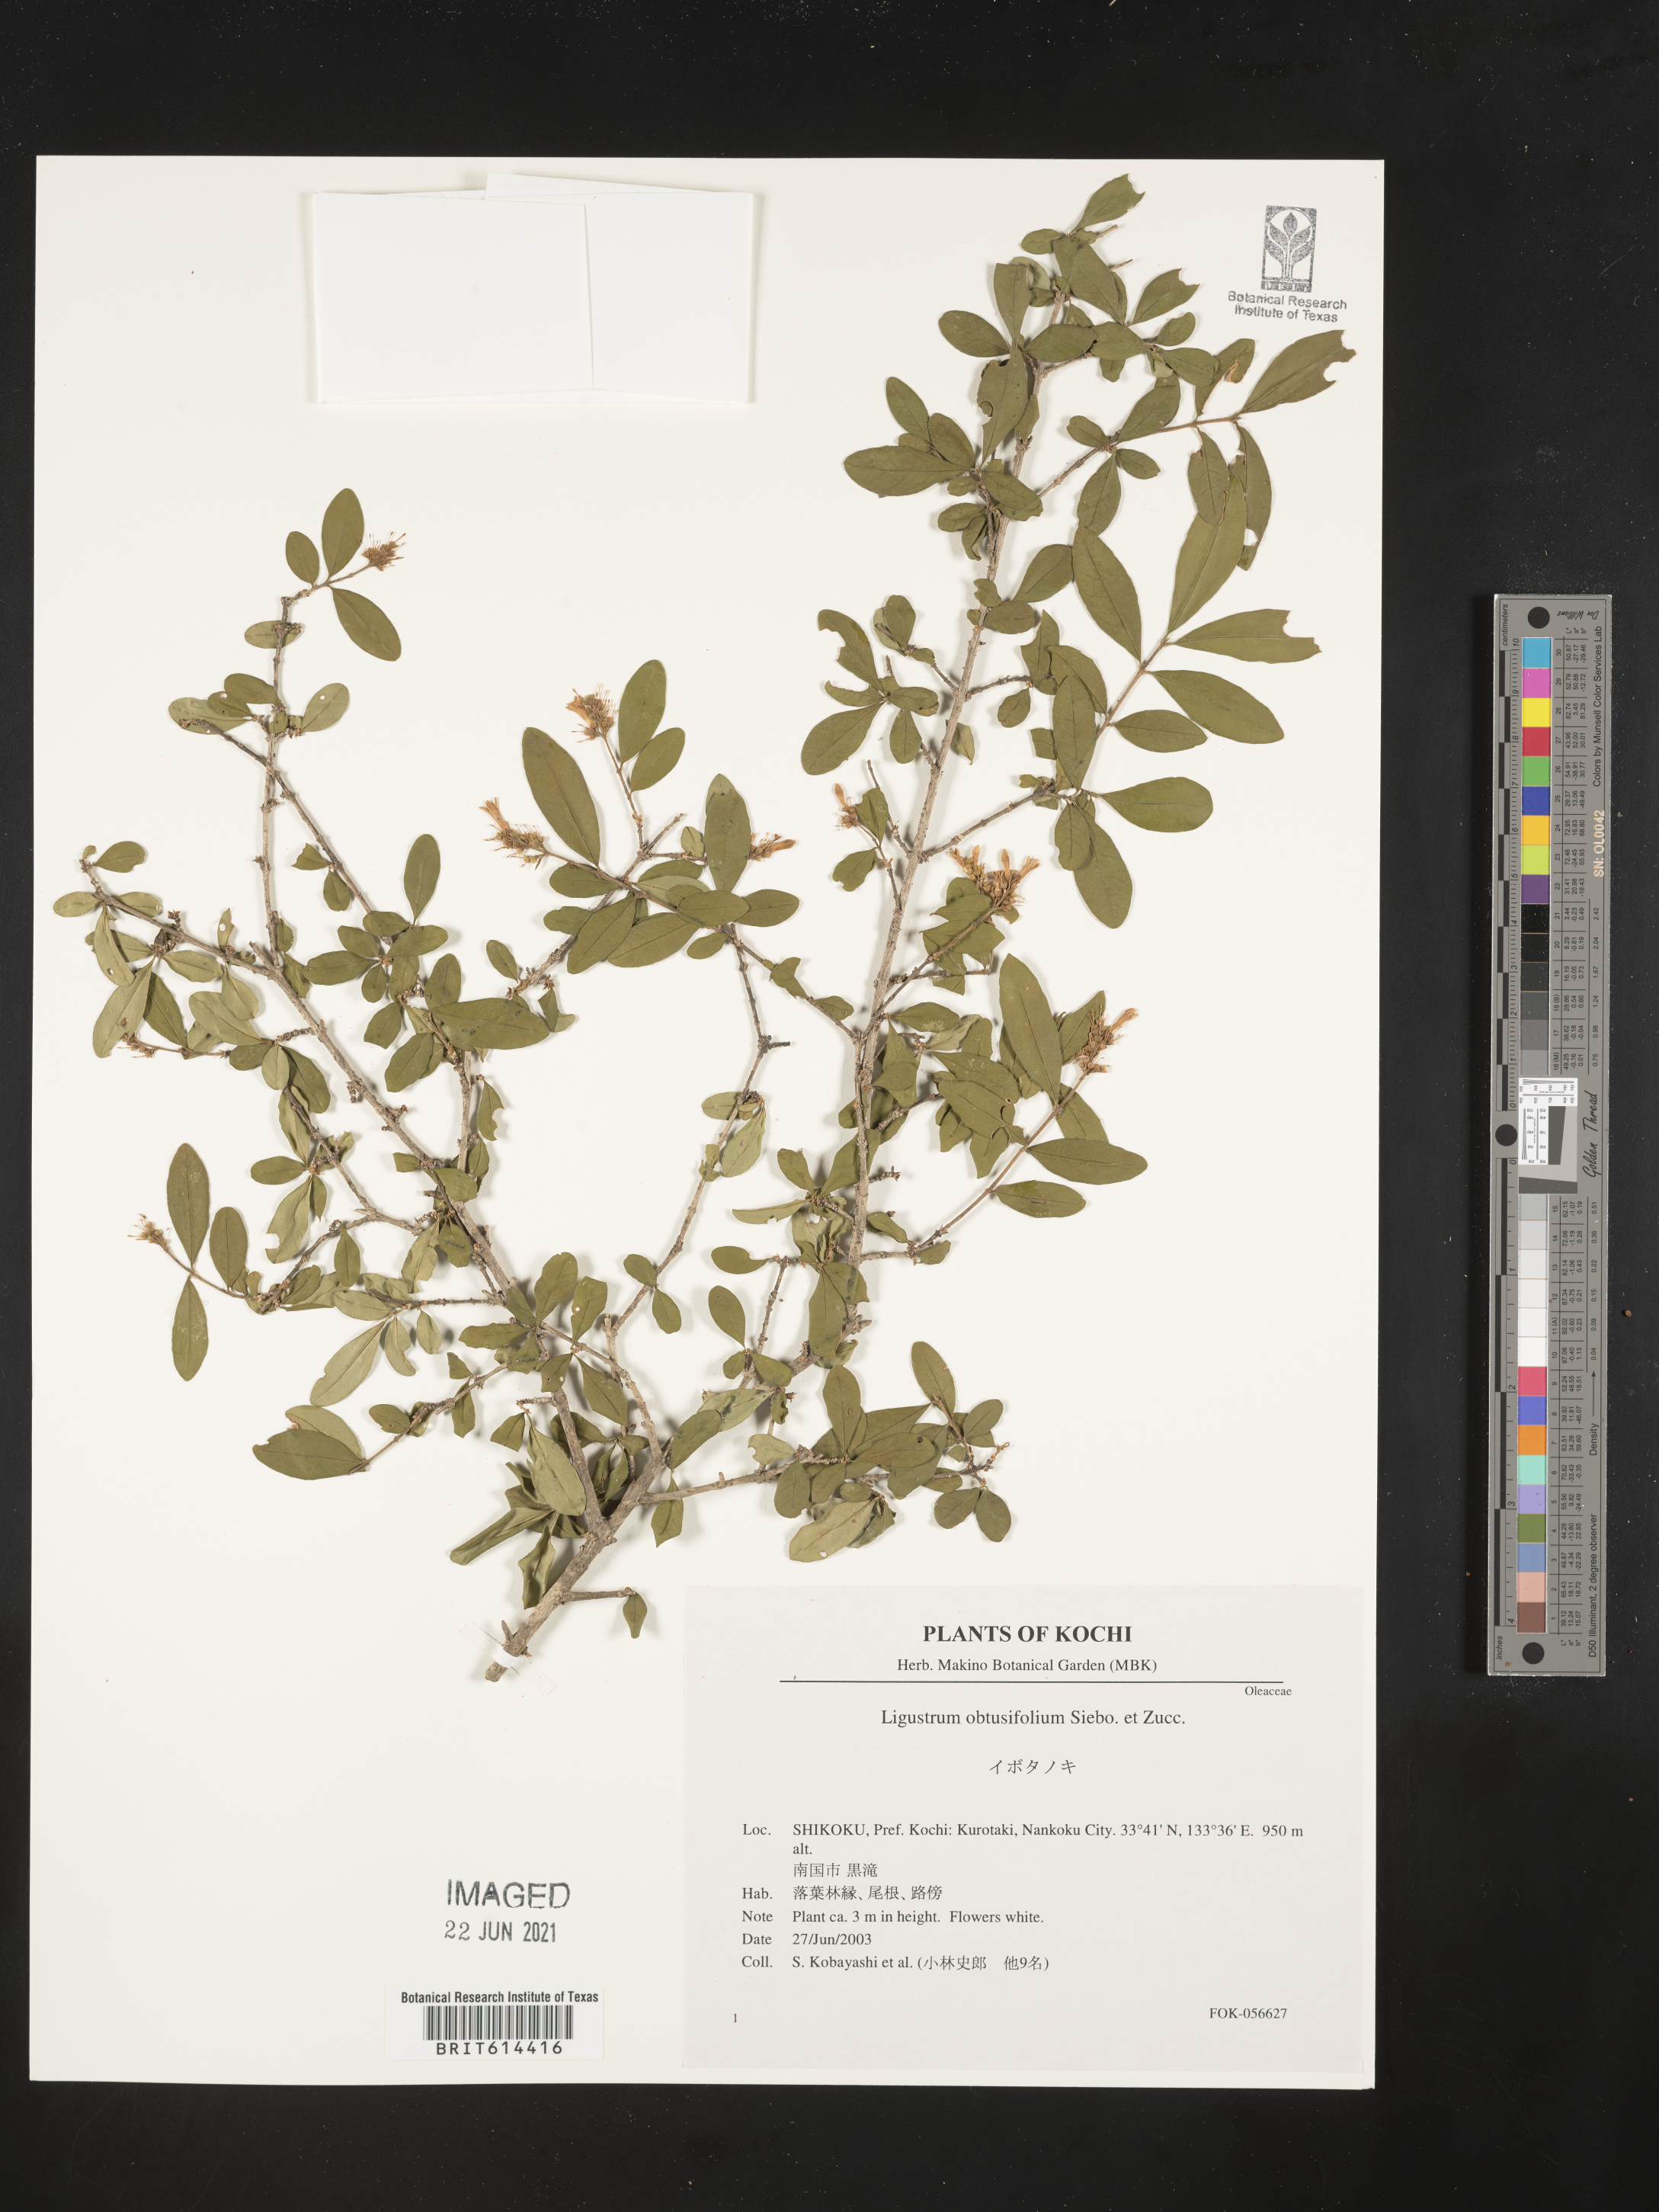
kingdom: Plantae
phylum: Tracheophyta
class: Magnoliopsida
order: Lamiales
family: Oleaceae
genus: Ligustrum
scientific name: Ligustrum obtusifolium
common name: Border privet
